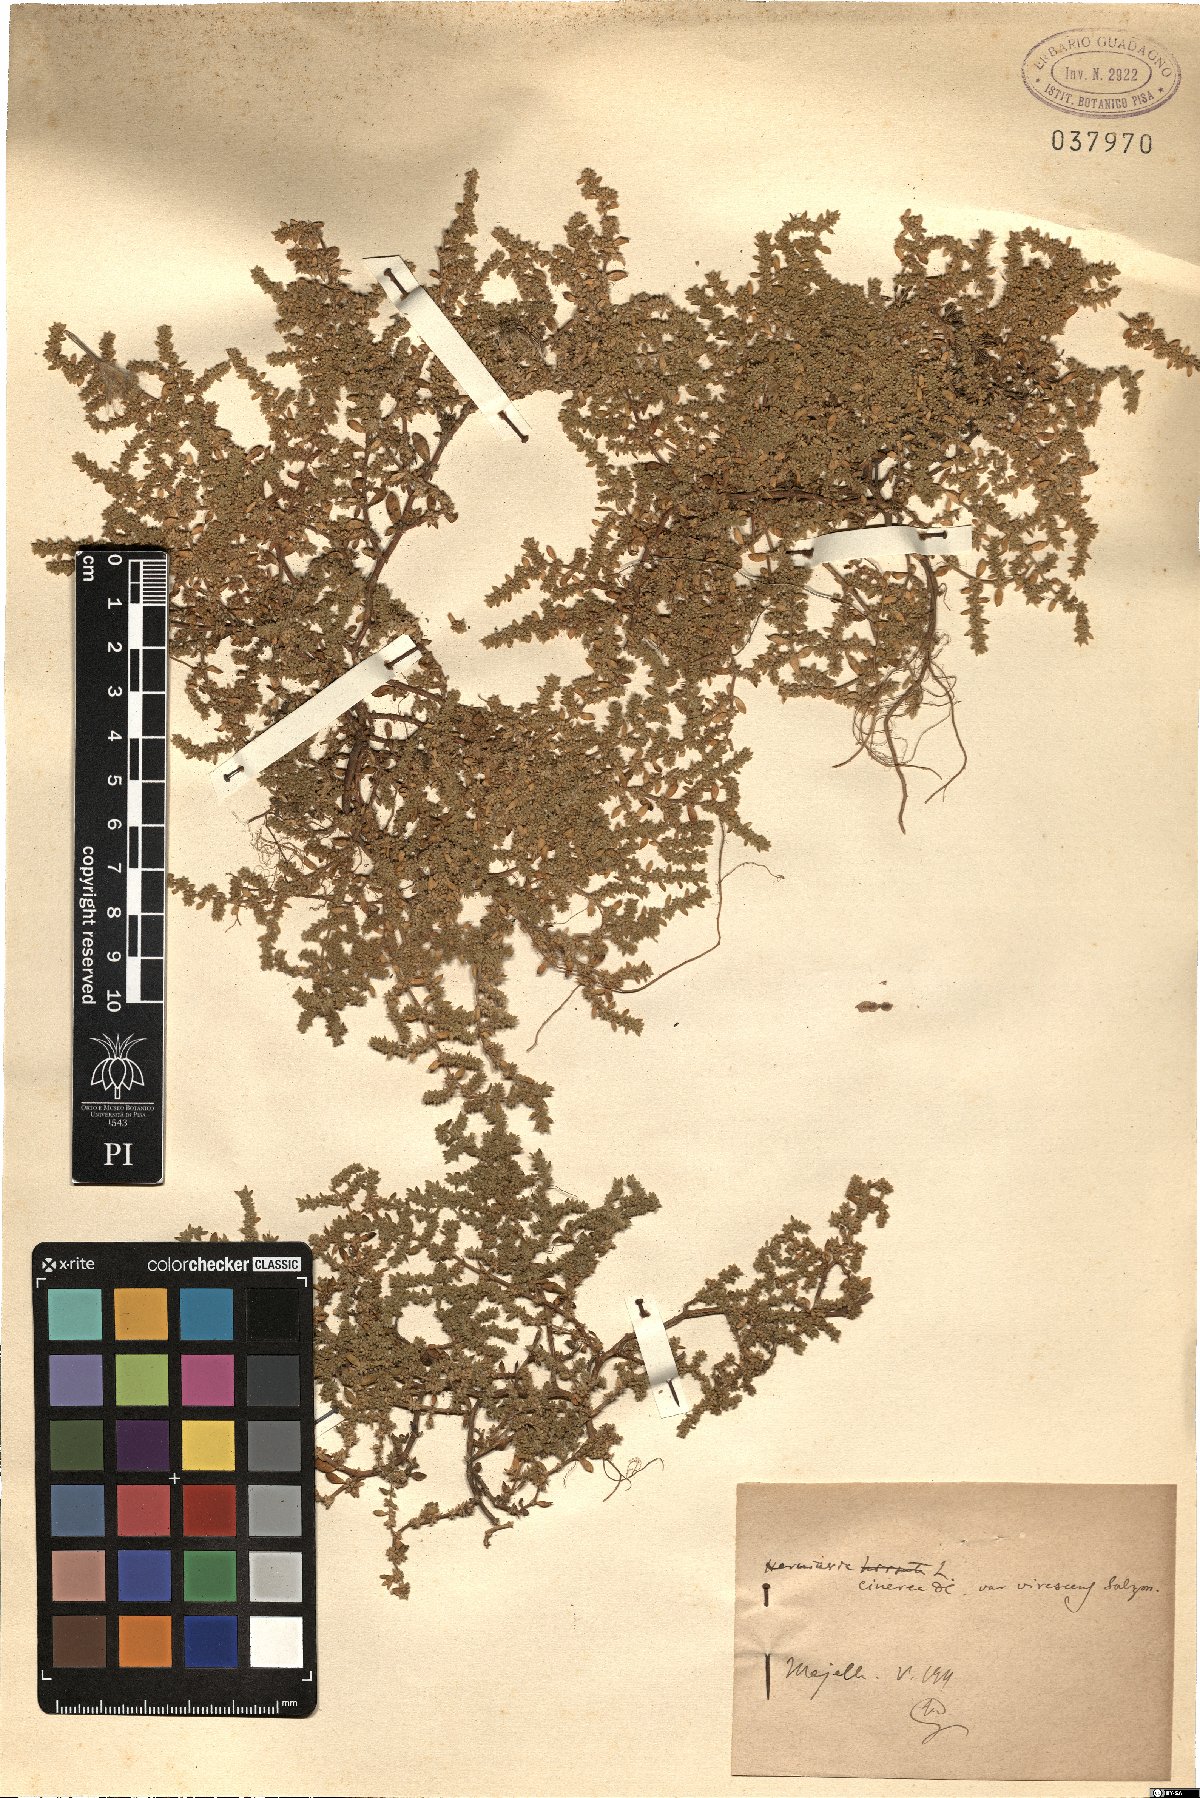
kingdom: Plantae
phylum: Tracheophyta
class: Magnoliopsida
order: Caryophyllales
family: Caryophyllaceae
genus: Herniaria
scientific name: Herniaria cinerea
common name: Hairy rupturewort
